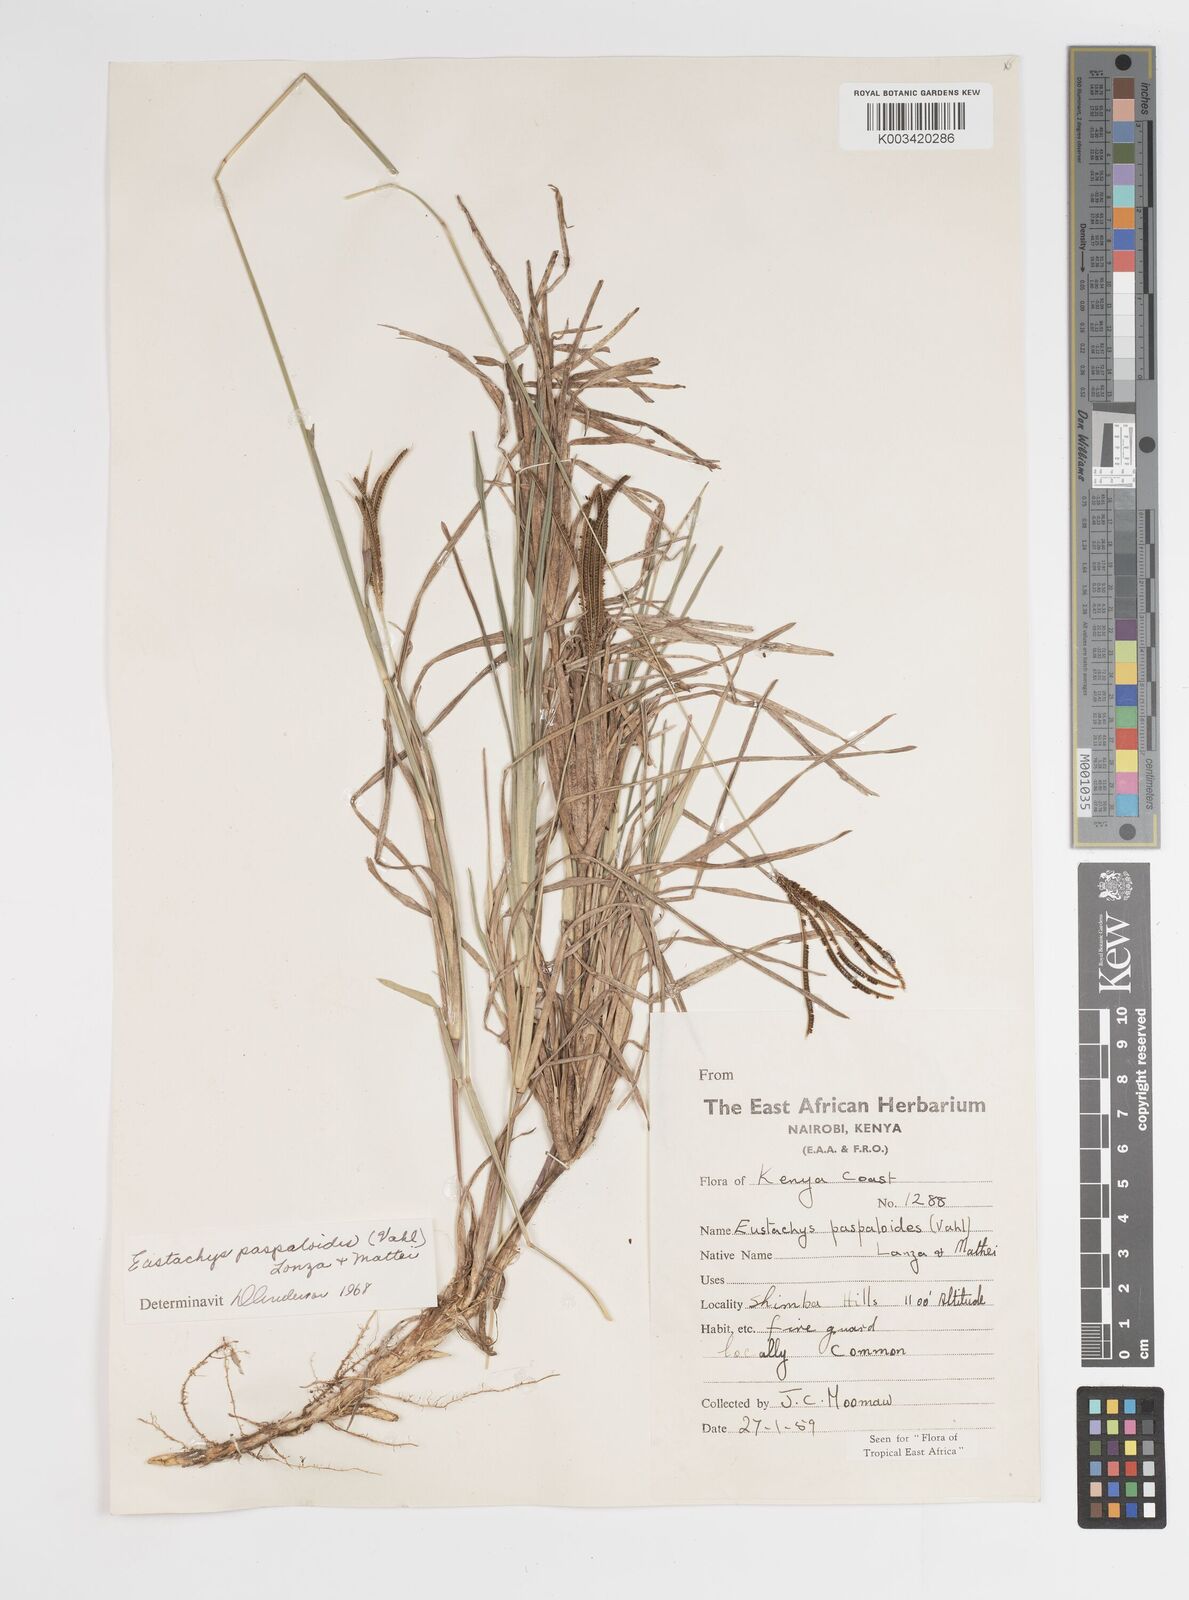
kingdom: Plantae
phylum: Tracheophyta
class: Liliopsida
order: Poales
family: Poaceae
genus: Eustachys
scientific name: Eustachys paspaloides
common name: Caribbean fingergrass
